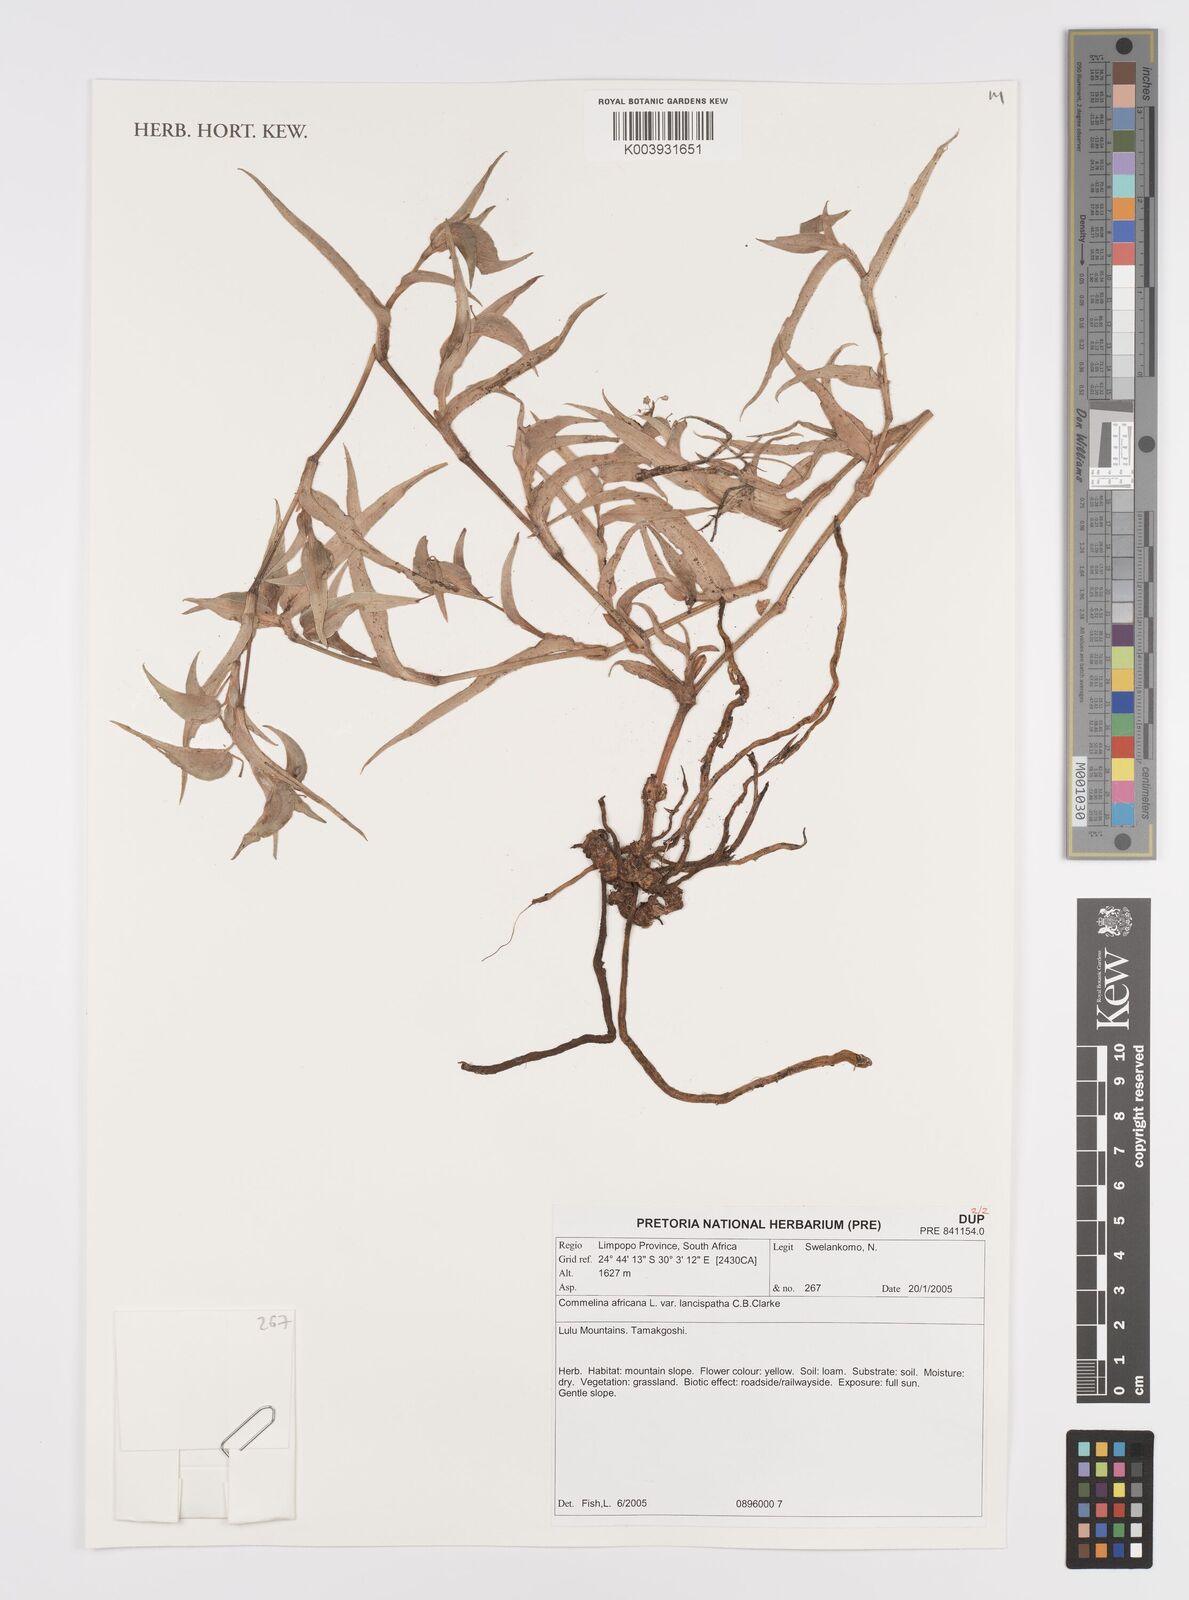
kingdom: Plantae
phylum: Tracheophyta
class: Liliopsida
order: Commelinales
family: Commelinaceae
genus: Commelina
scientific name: Commelina africana
